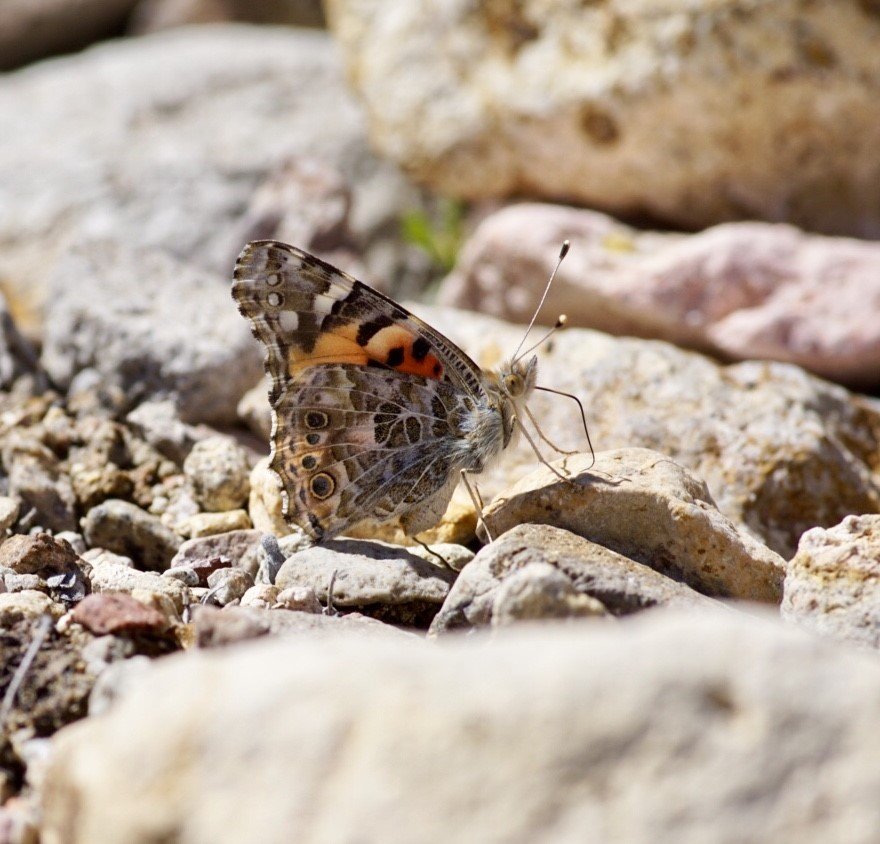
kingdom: Animalia
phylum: Arthropoda
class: Insecta
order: Lepidoptera
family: Nymphalidae
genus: Vanessa
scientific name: Vanessa cardui
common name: Painted Lady
